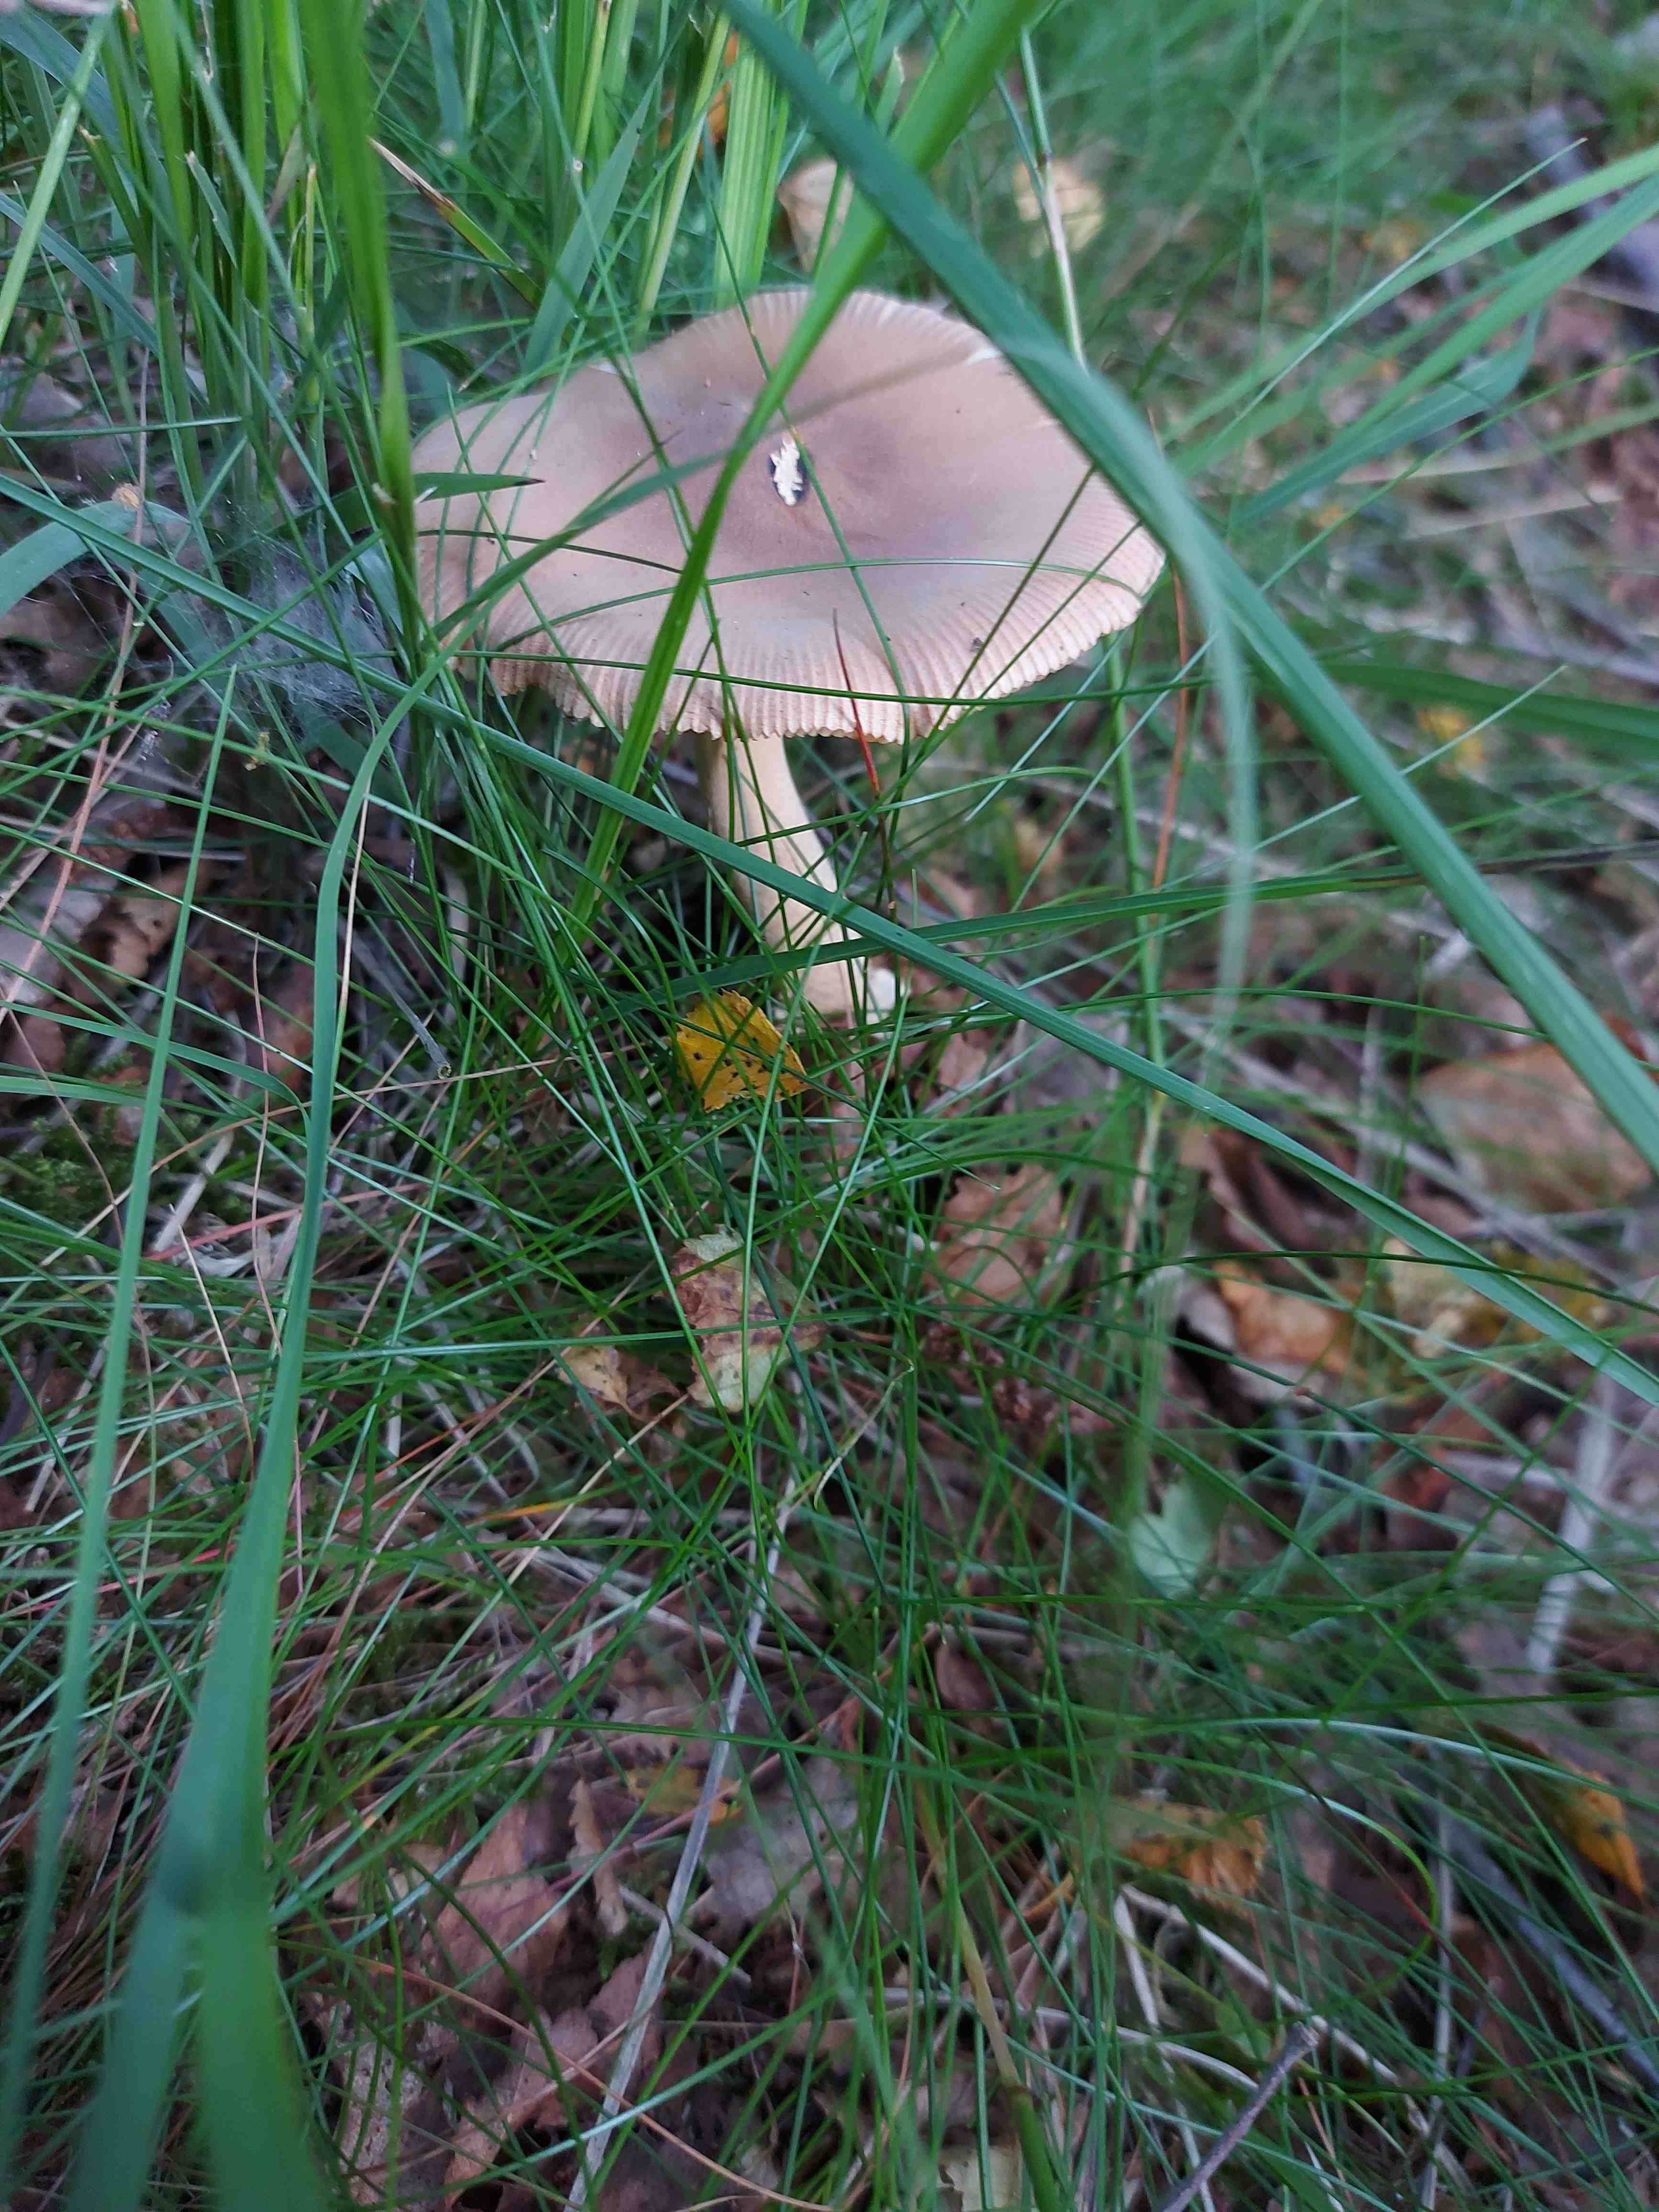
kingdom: Fungi
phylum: Basidiomycota
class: Agaricomycetes
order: Agaricales
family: Amanitaceae
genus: Amanita
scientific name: Amanita
